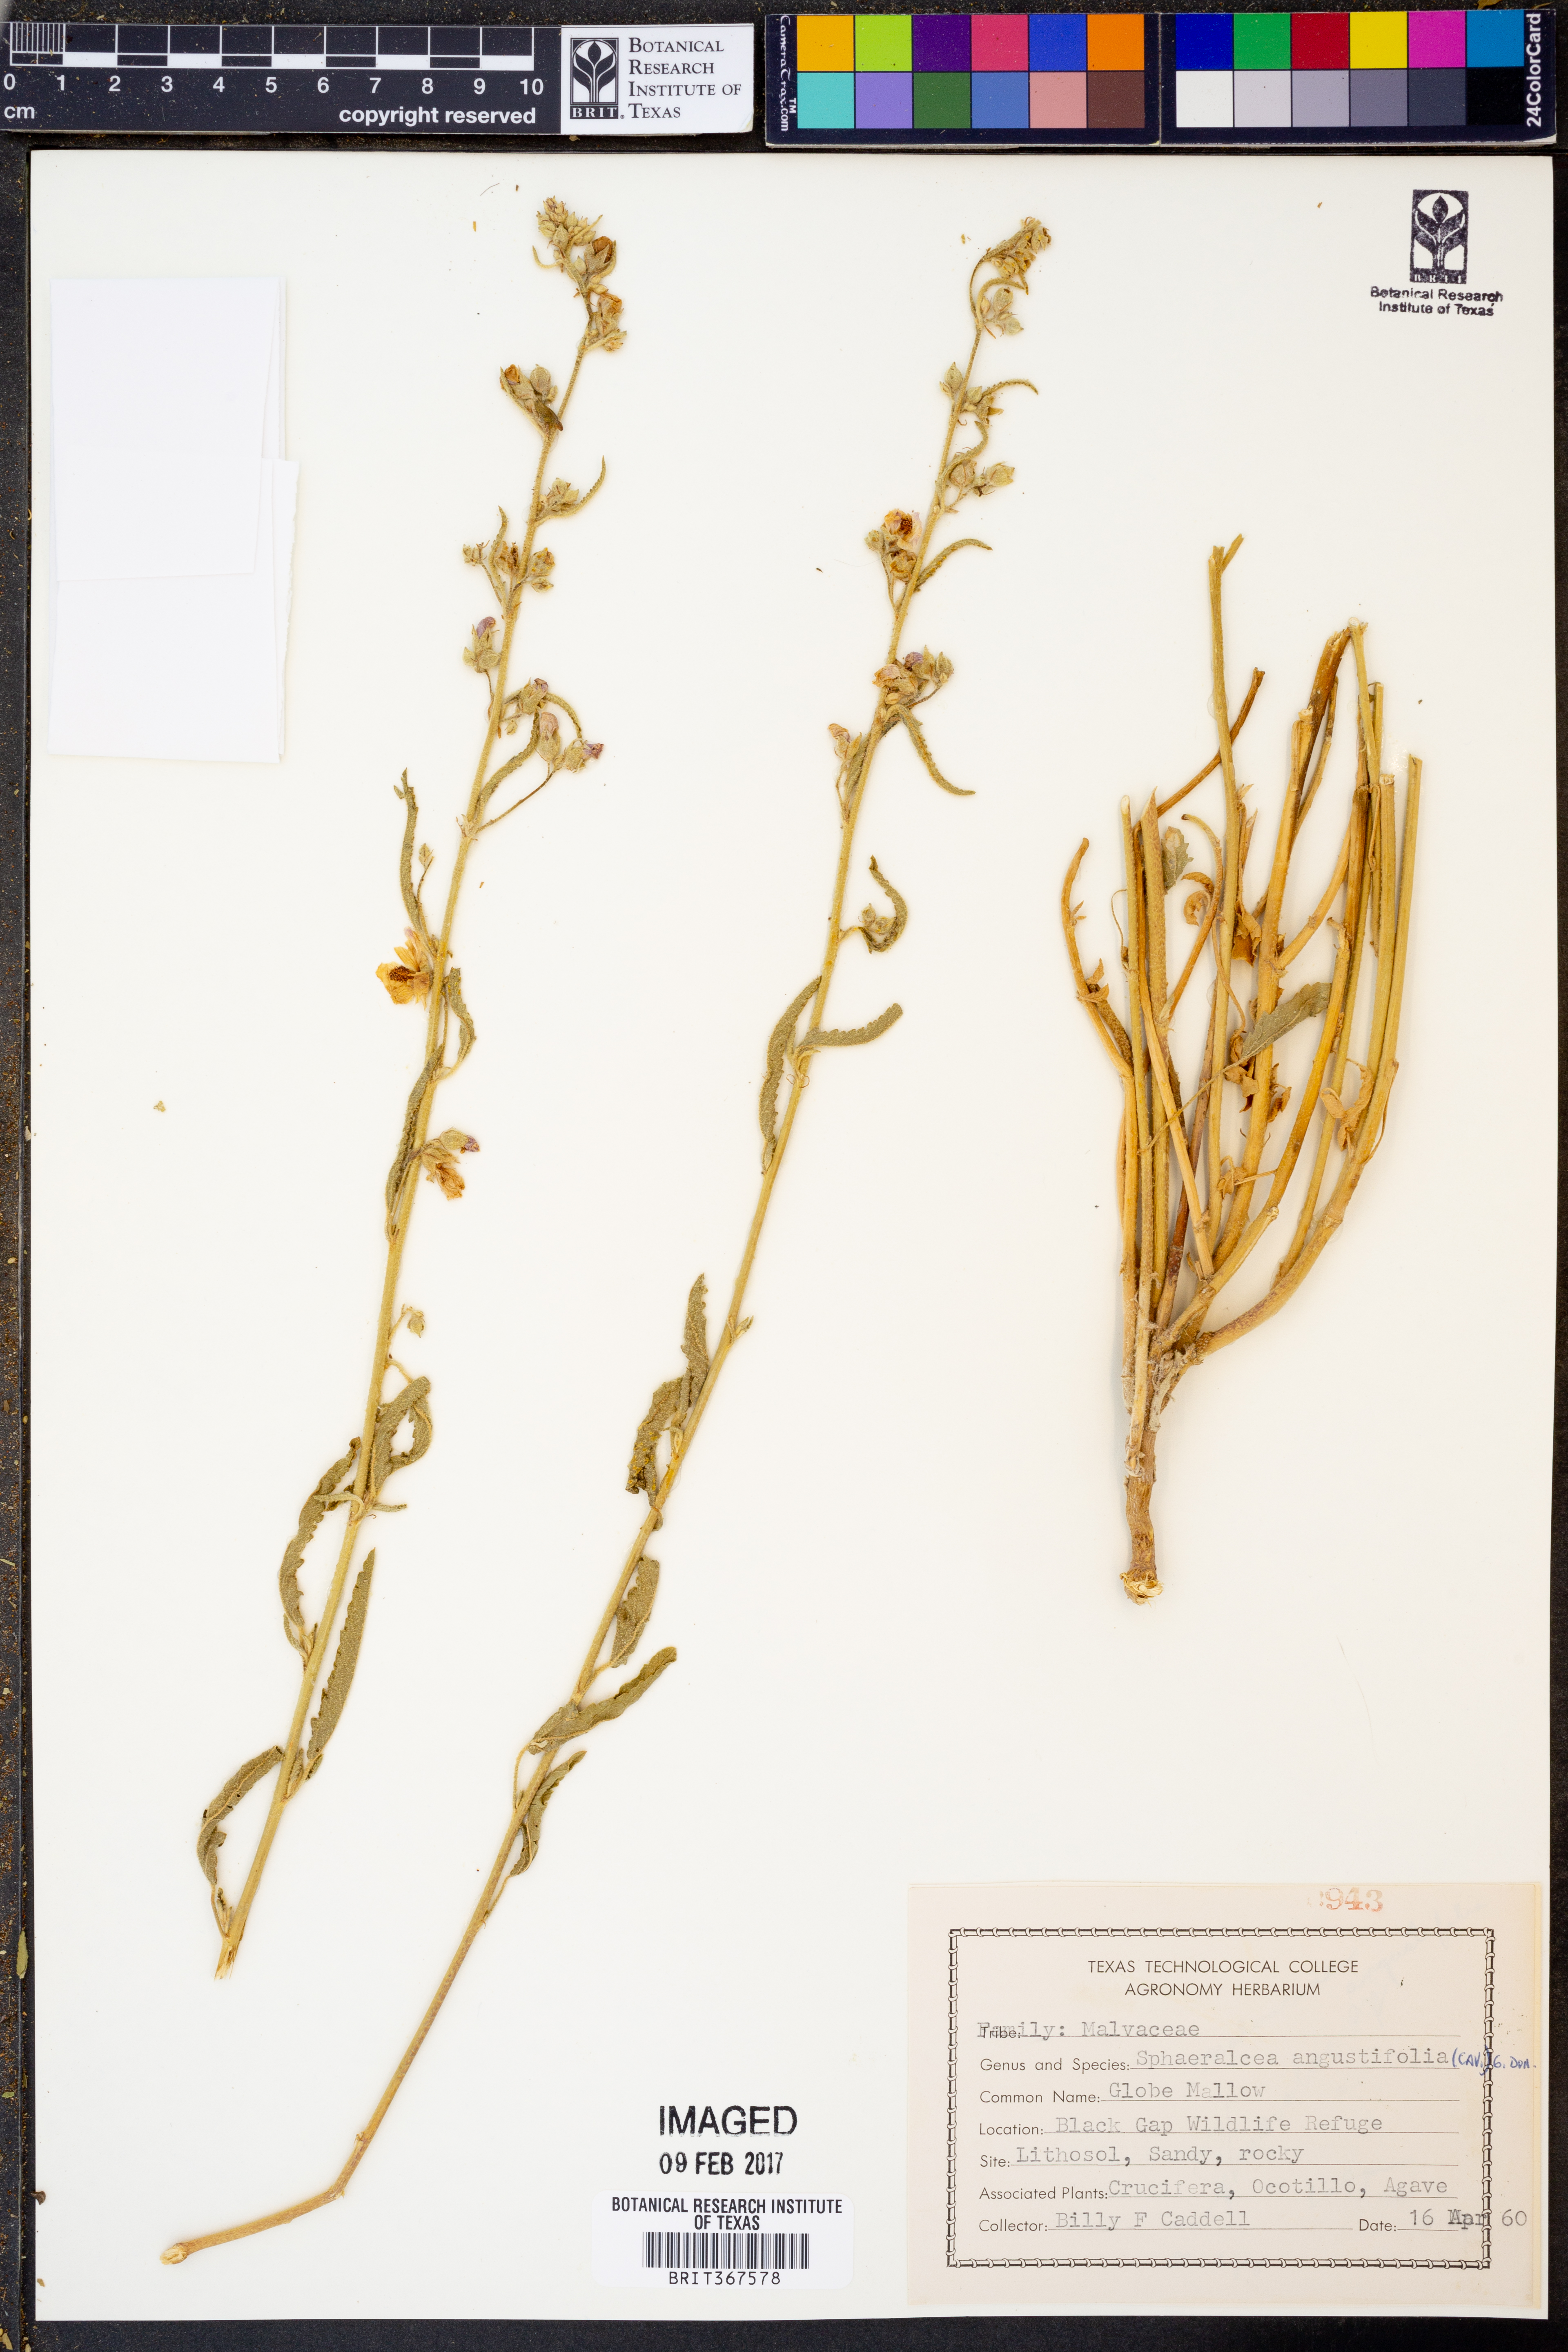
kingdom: Plantae
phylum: Tracheophyta
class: Magnoliopsida
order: Malvales
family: Malvaceae
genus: Sphaeralcea
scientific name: Sphaeralcea angustifolia
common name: Copper globe-mallow
